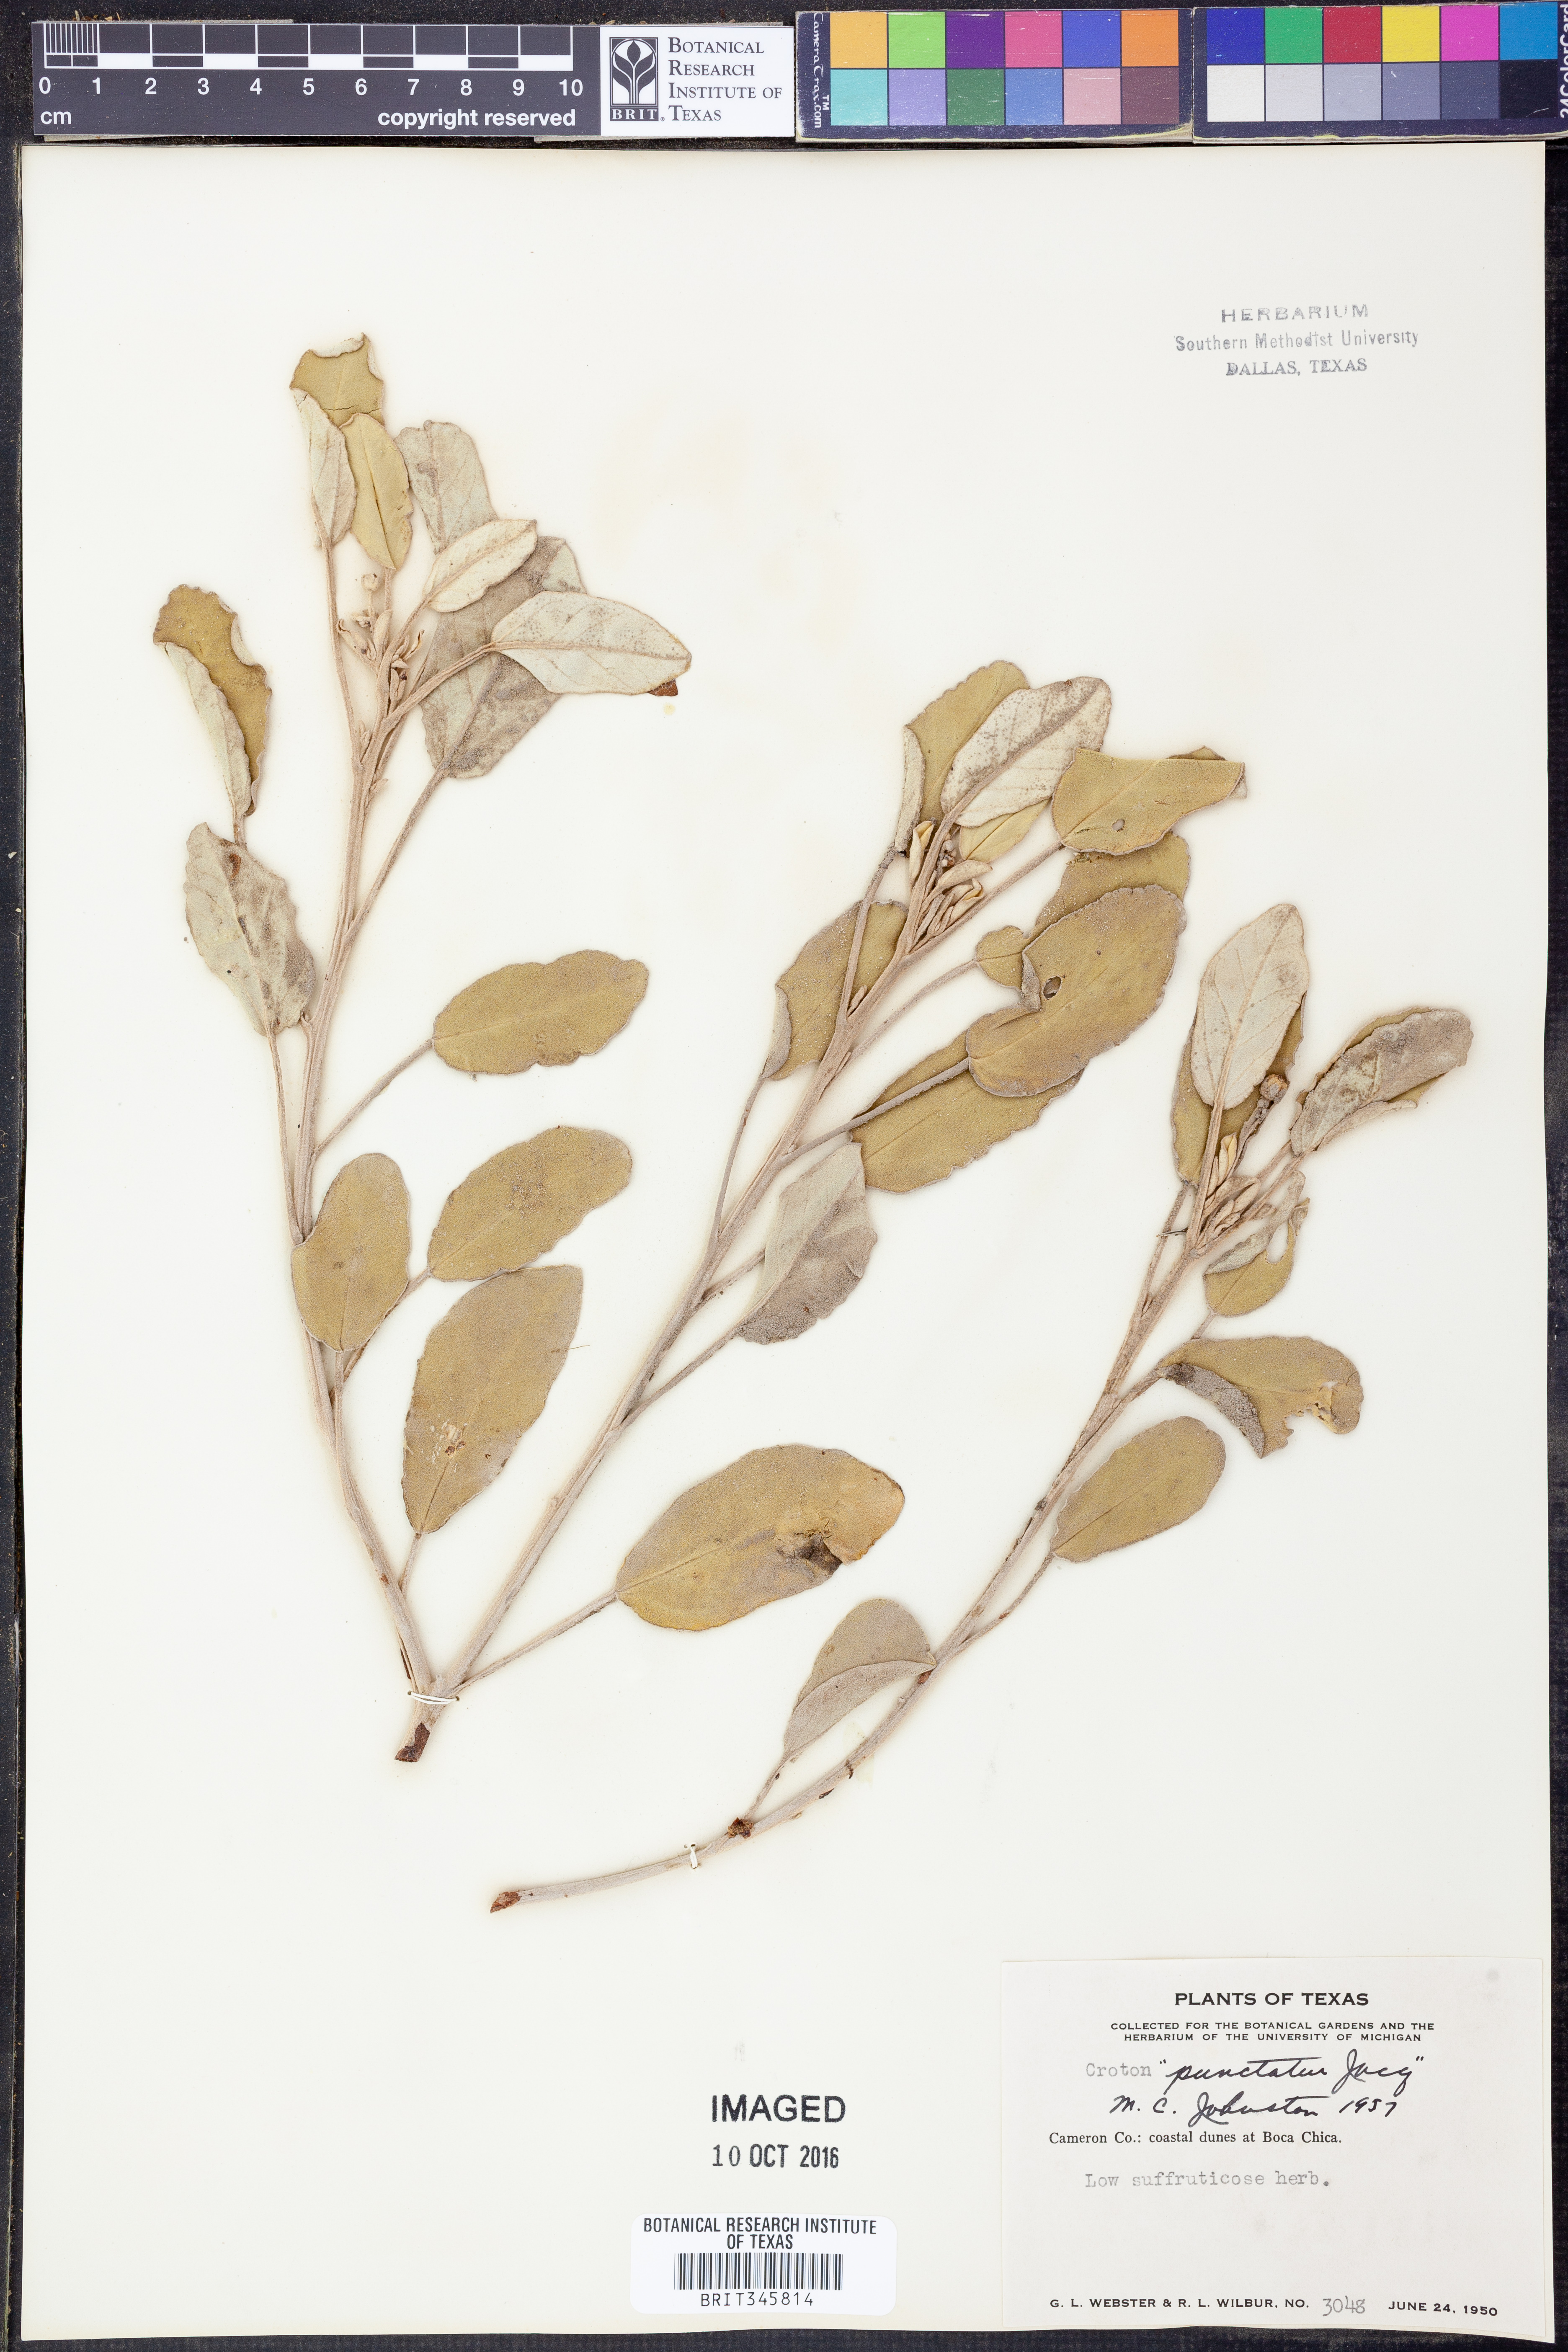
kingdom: Plantae
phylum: Tracheophyta
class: Magnoliopsida
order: Malpighiales
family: Euphorbiaceae
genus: Croton
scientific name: Croton punctatus
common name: Beach-tea
